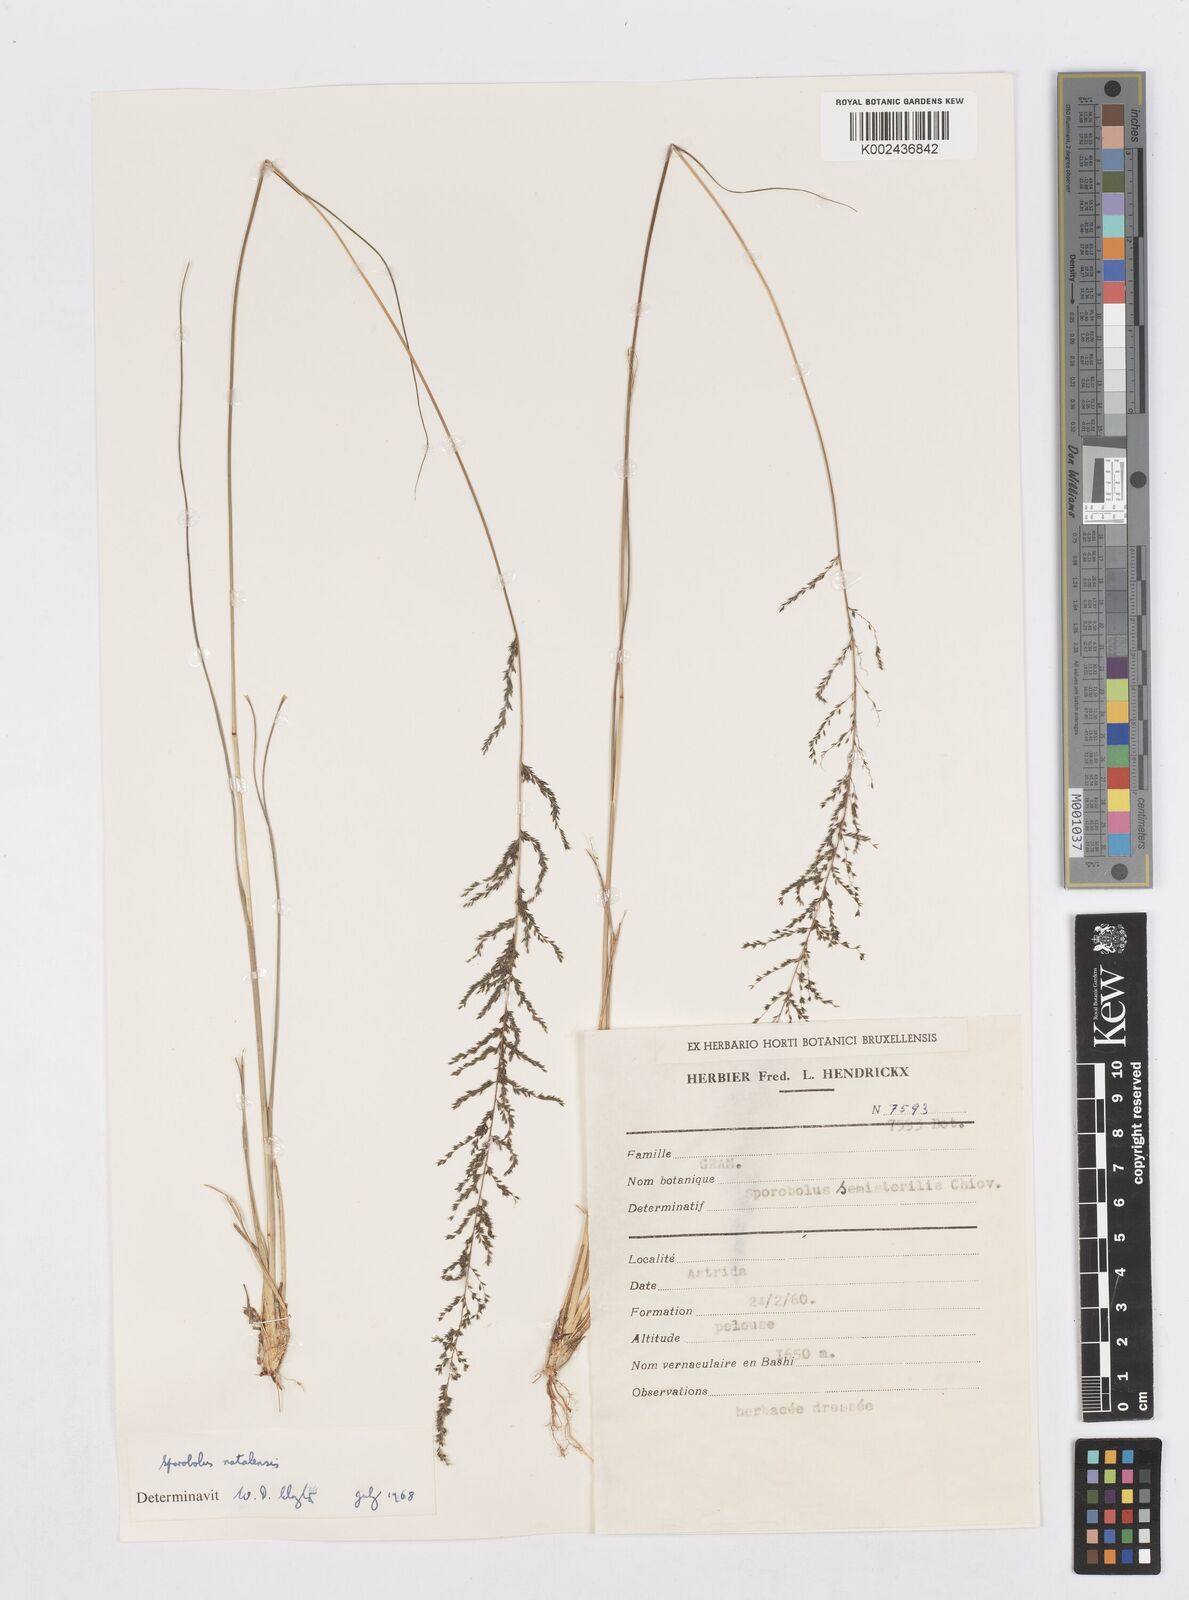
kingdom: Plantae
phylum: Tracheophyta
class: Liliopsida
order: Poales
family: Poaceae
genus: Sporobolus
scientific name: Sporobolus natalensis
